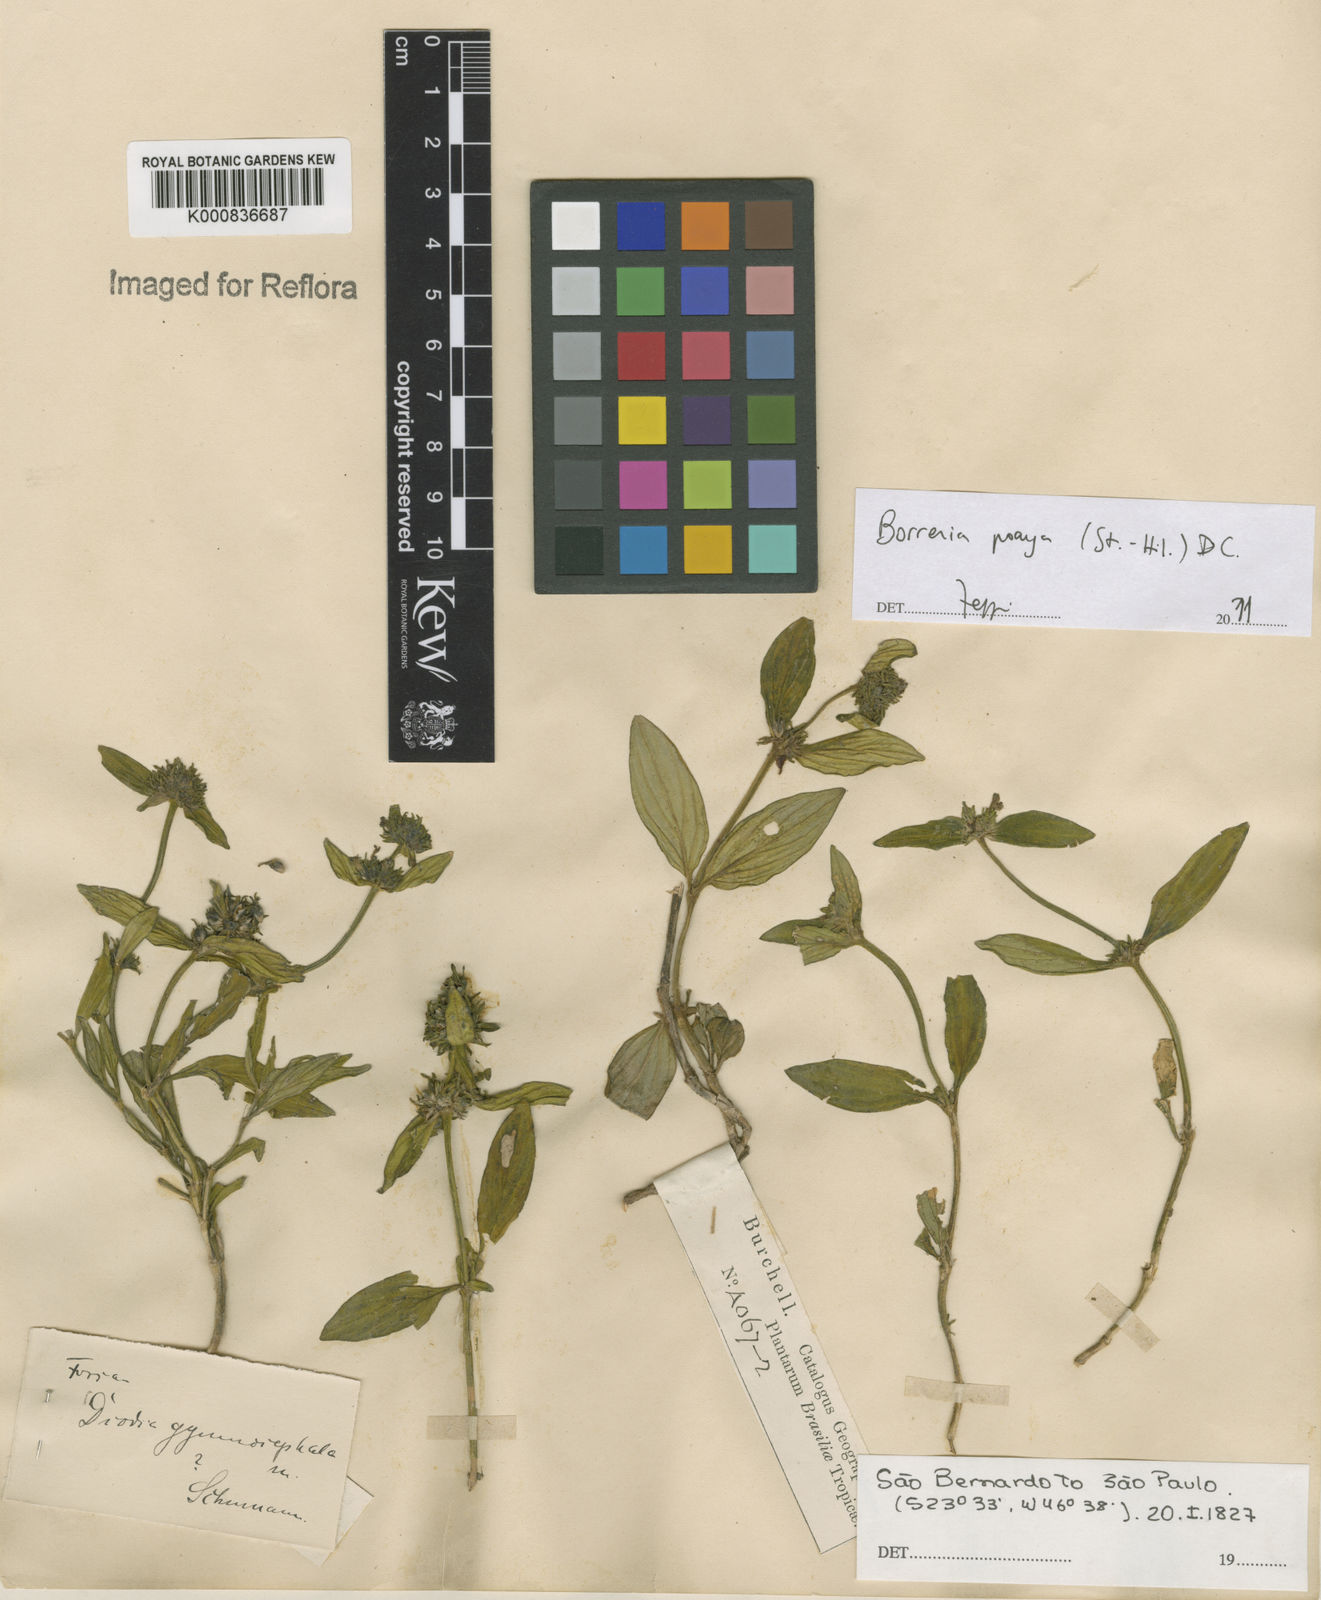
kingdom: Plantae
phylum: Tracheophyta
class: Magnoliopsida
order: Gentianales
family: Rubiaceae
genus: Spermacoce
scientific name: Spermacoce poaya
